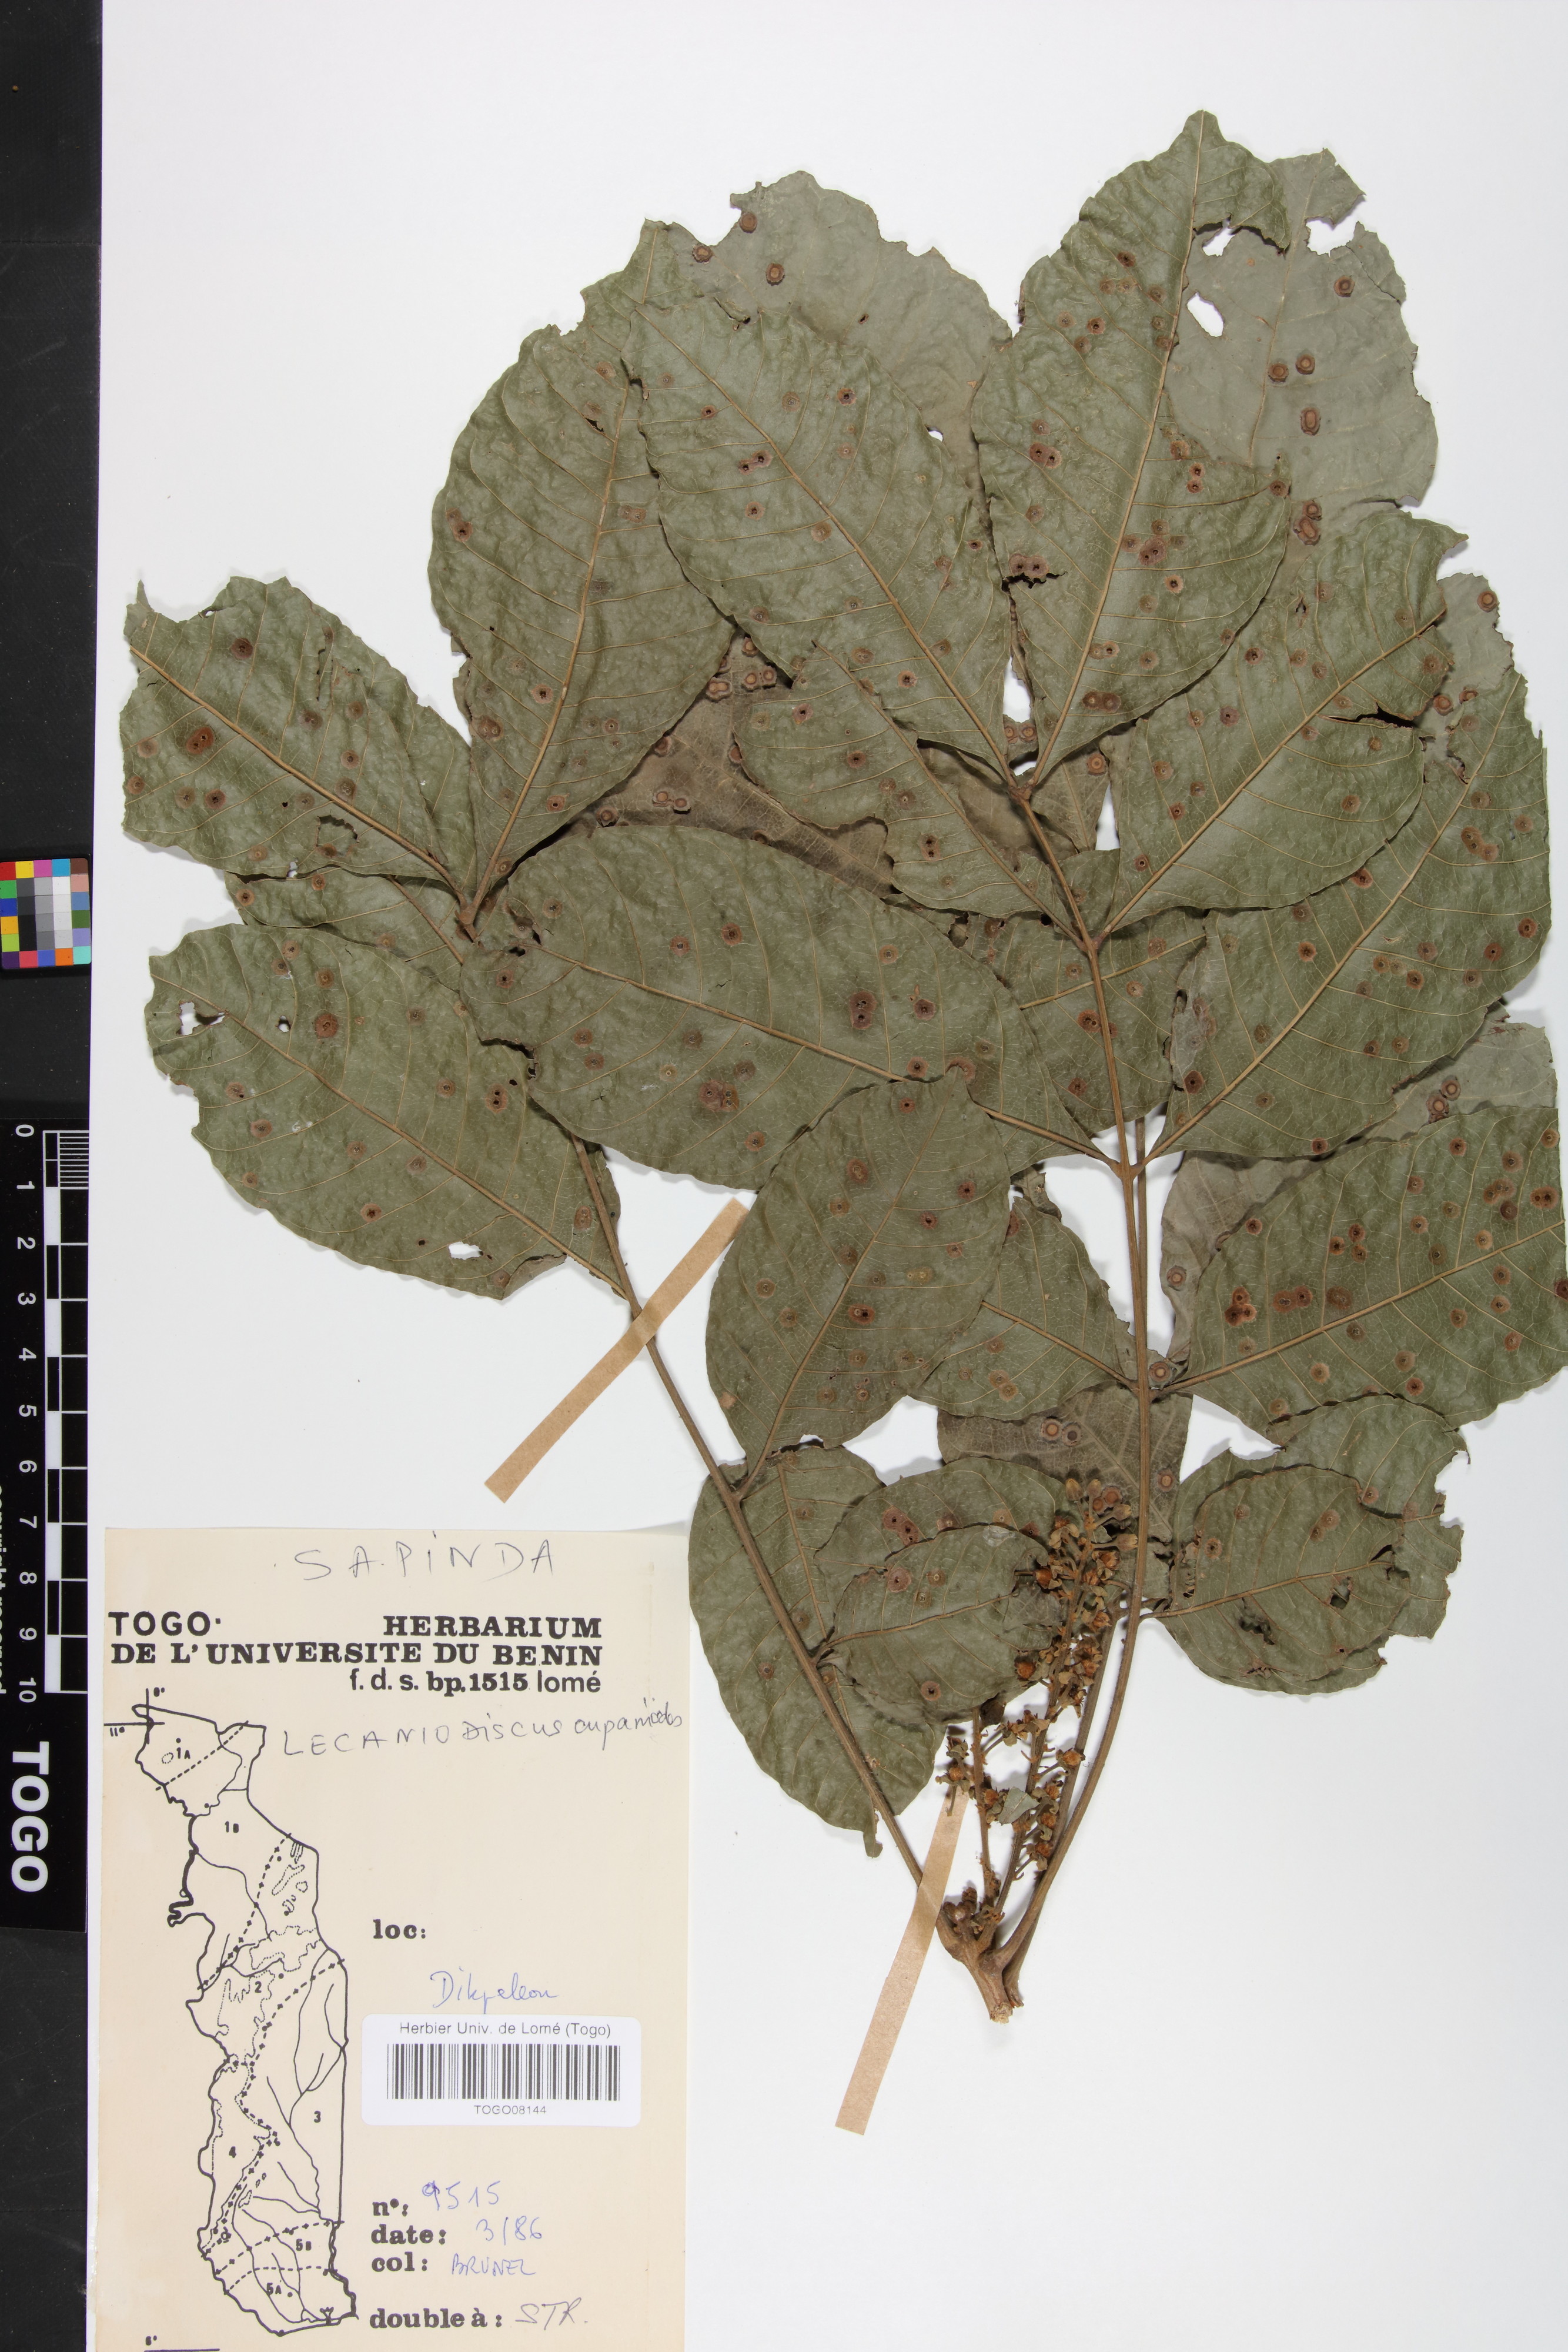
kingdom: Plantae
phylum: Tracheophyta
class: Magnoliopsida
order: Sapindales
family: Sapindaceae
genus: Lecaniodiscus
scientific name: Lecaniodiscus cupanioides
